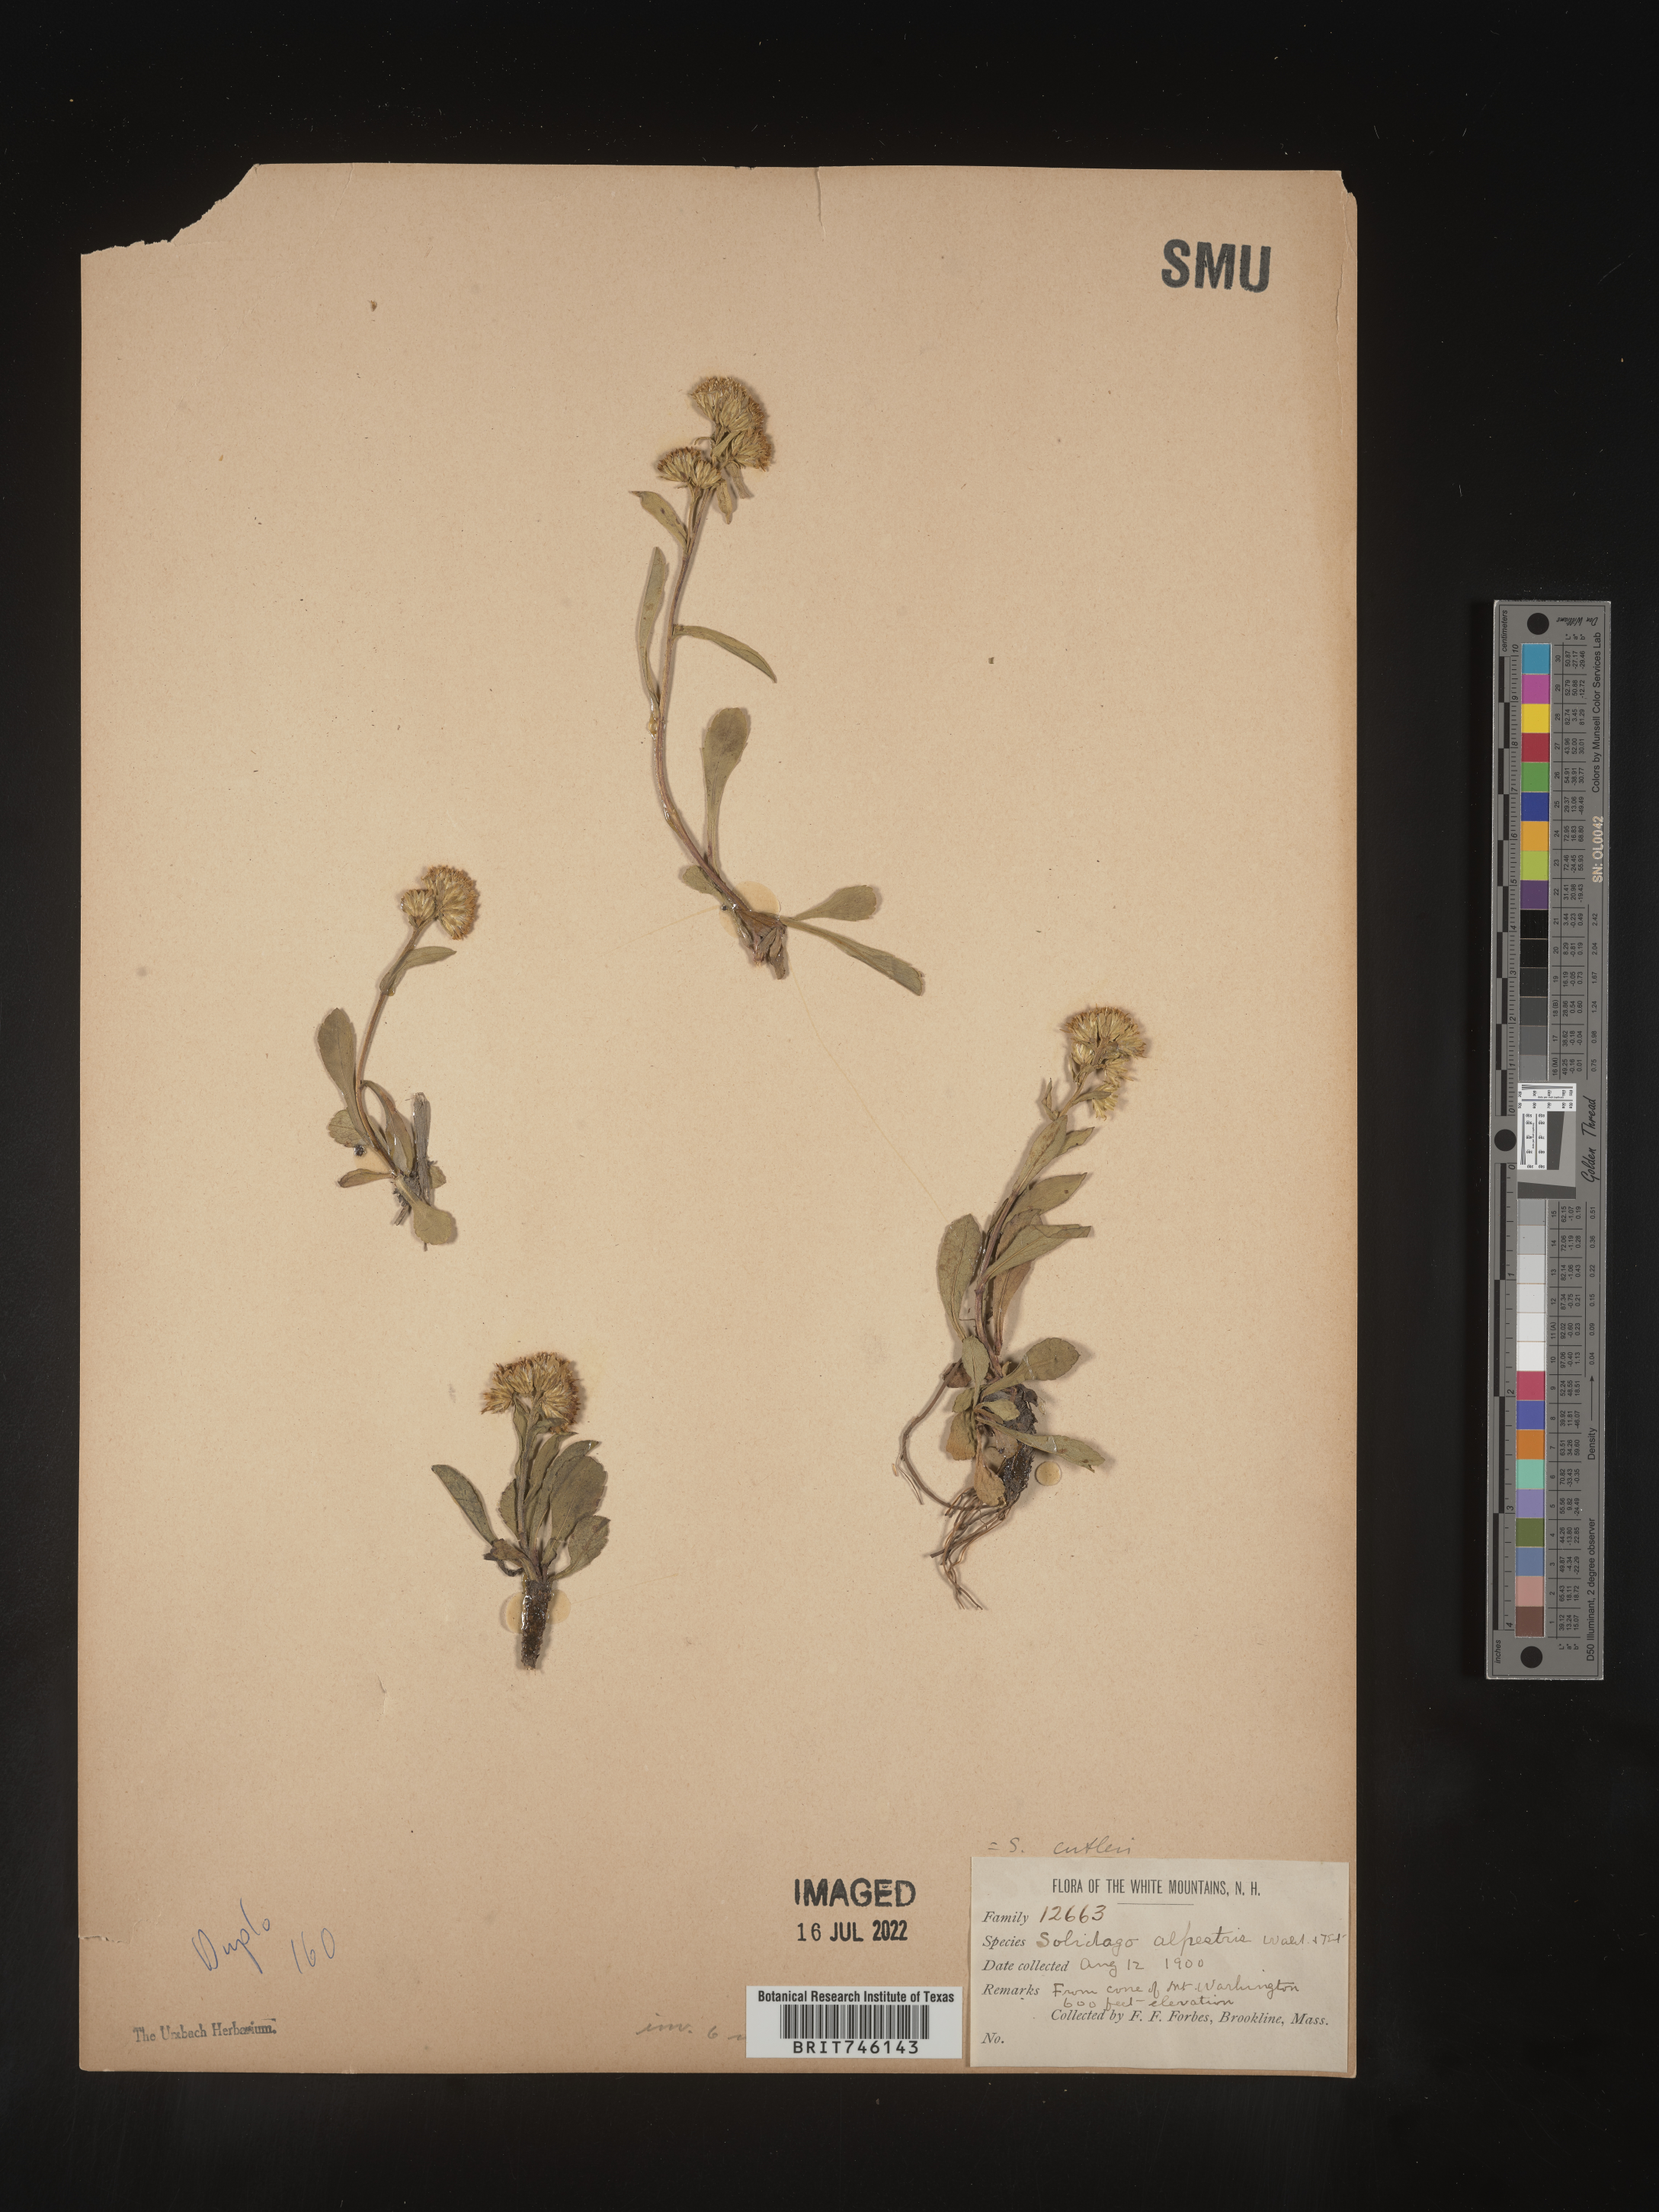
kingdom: Plantae
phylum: Tracheophyta
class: Magnoliopsida
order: Asterales
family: Asteraceae
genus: Solidago
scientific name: Solidago leiocarpa
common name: Cutler's alpine goldenrod
